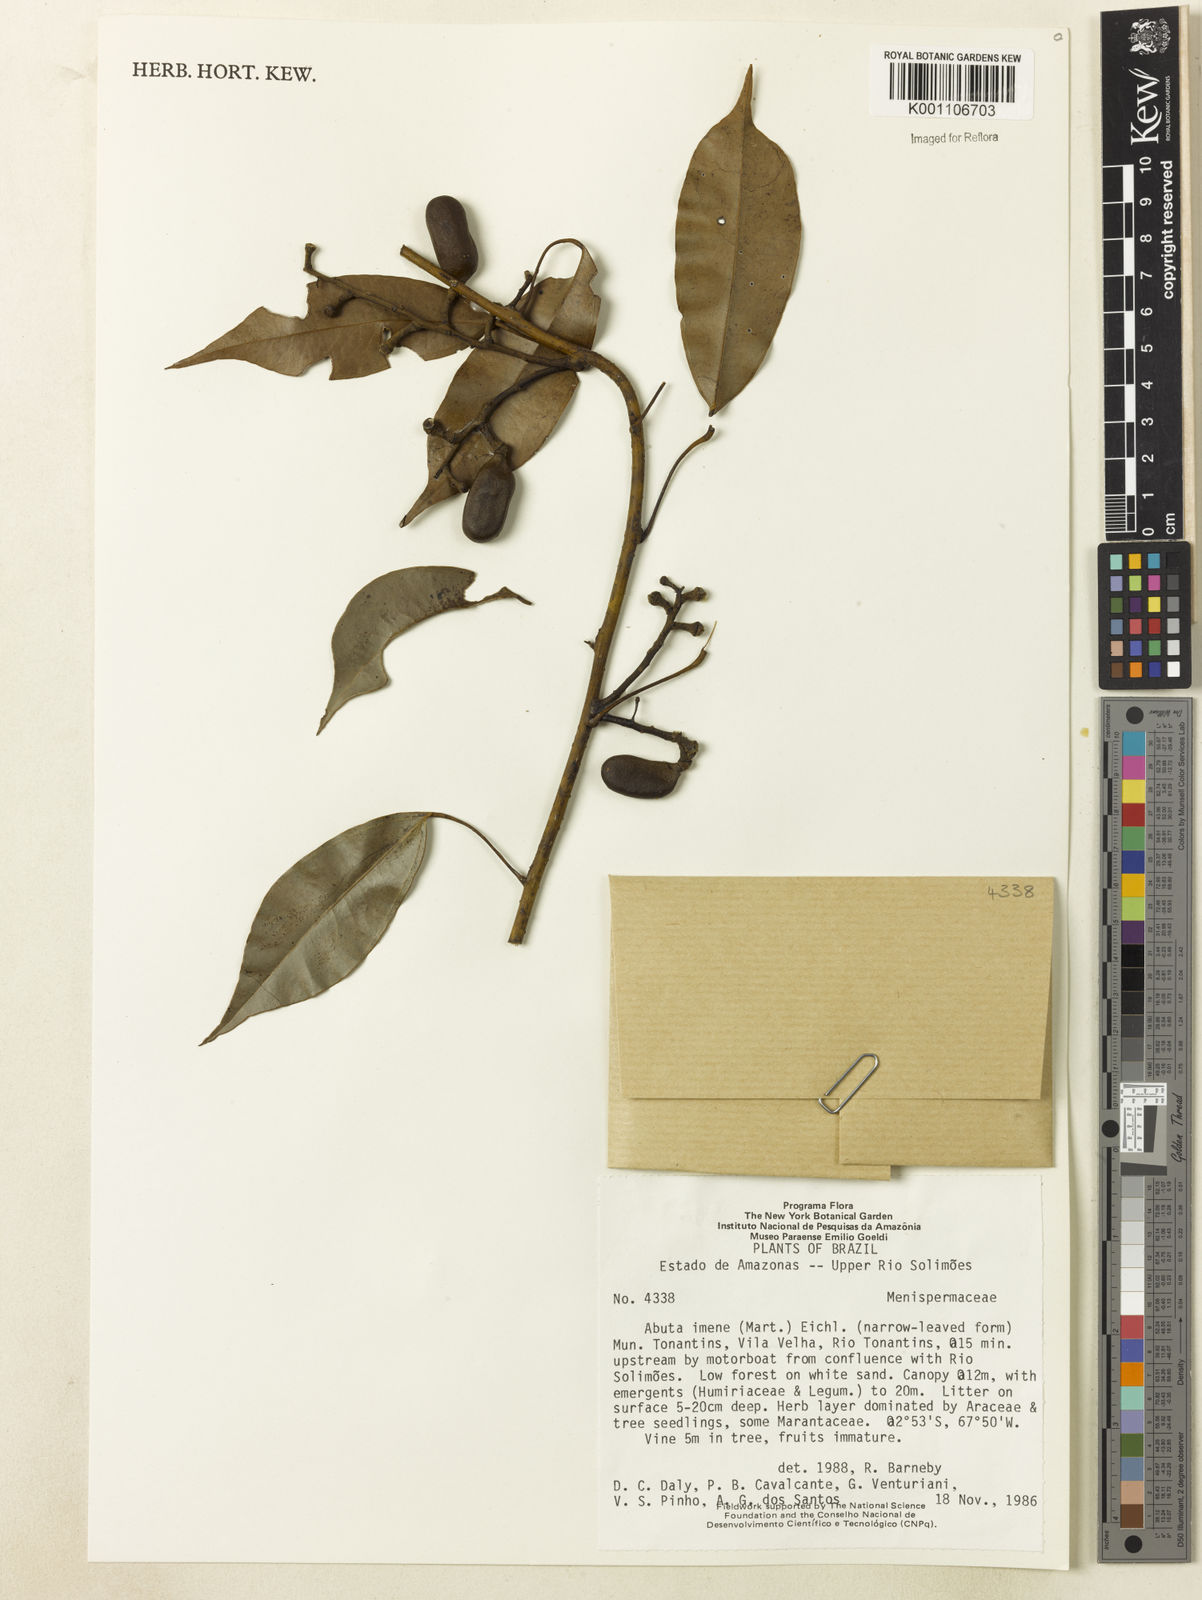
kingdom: Plantae
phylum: Tracheophyta
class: Magnoliopsida
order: Ranunculales
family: Menispermaceae
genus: Abuta
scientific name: Abuta imene
